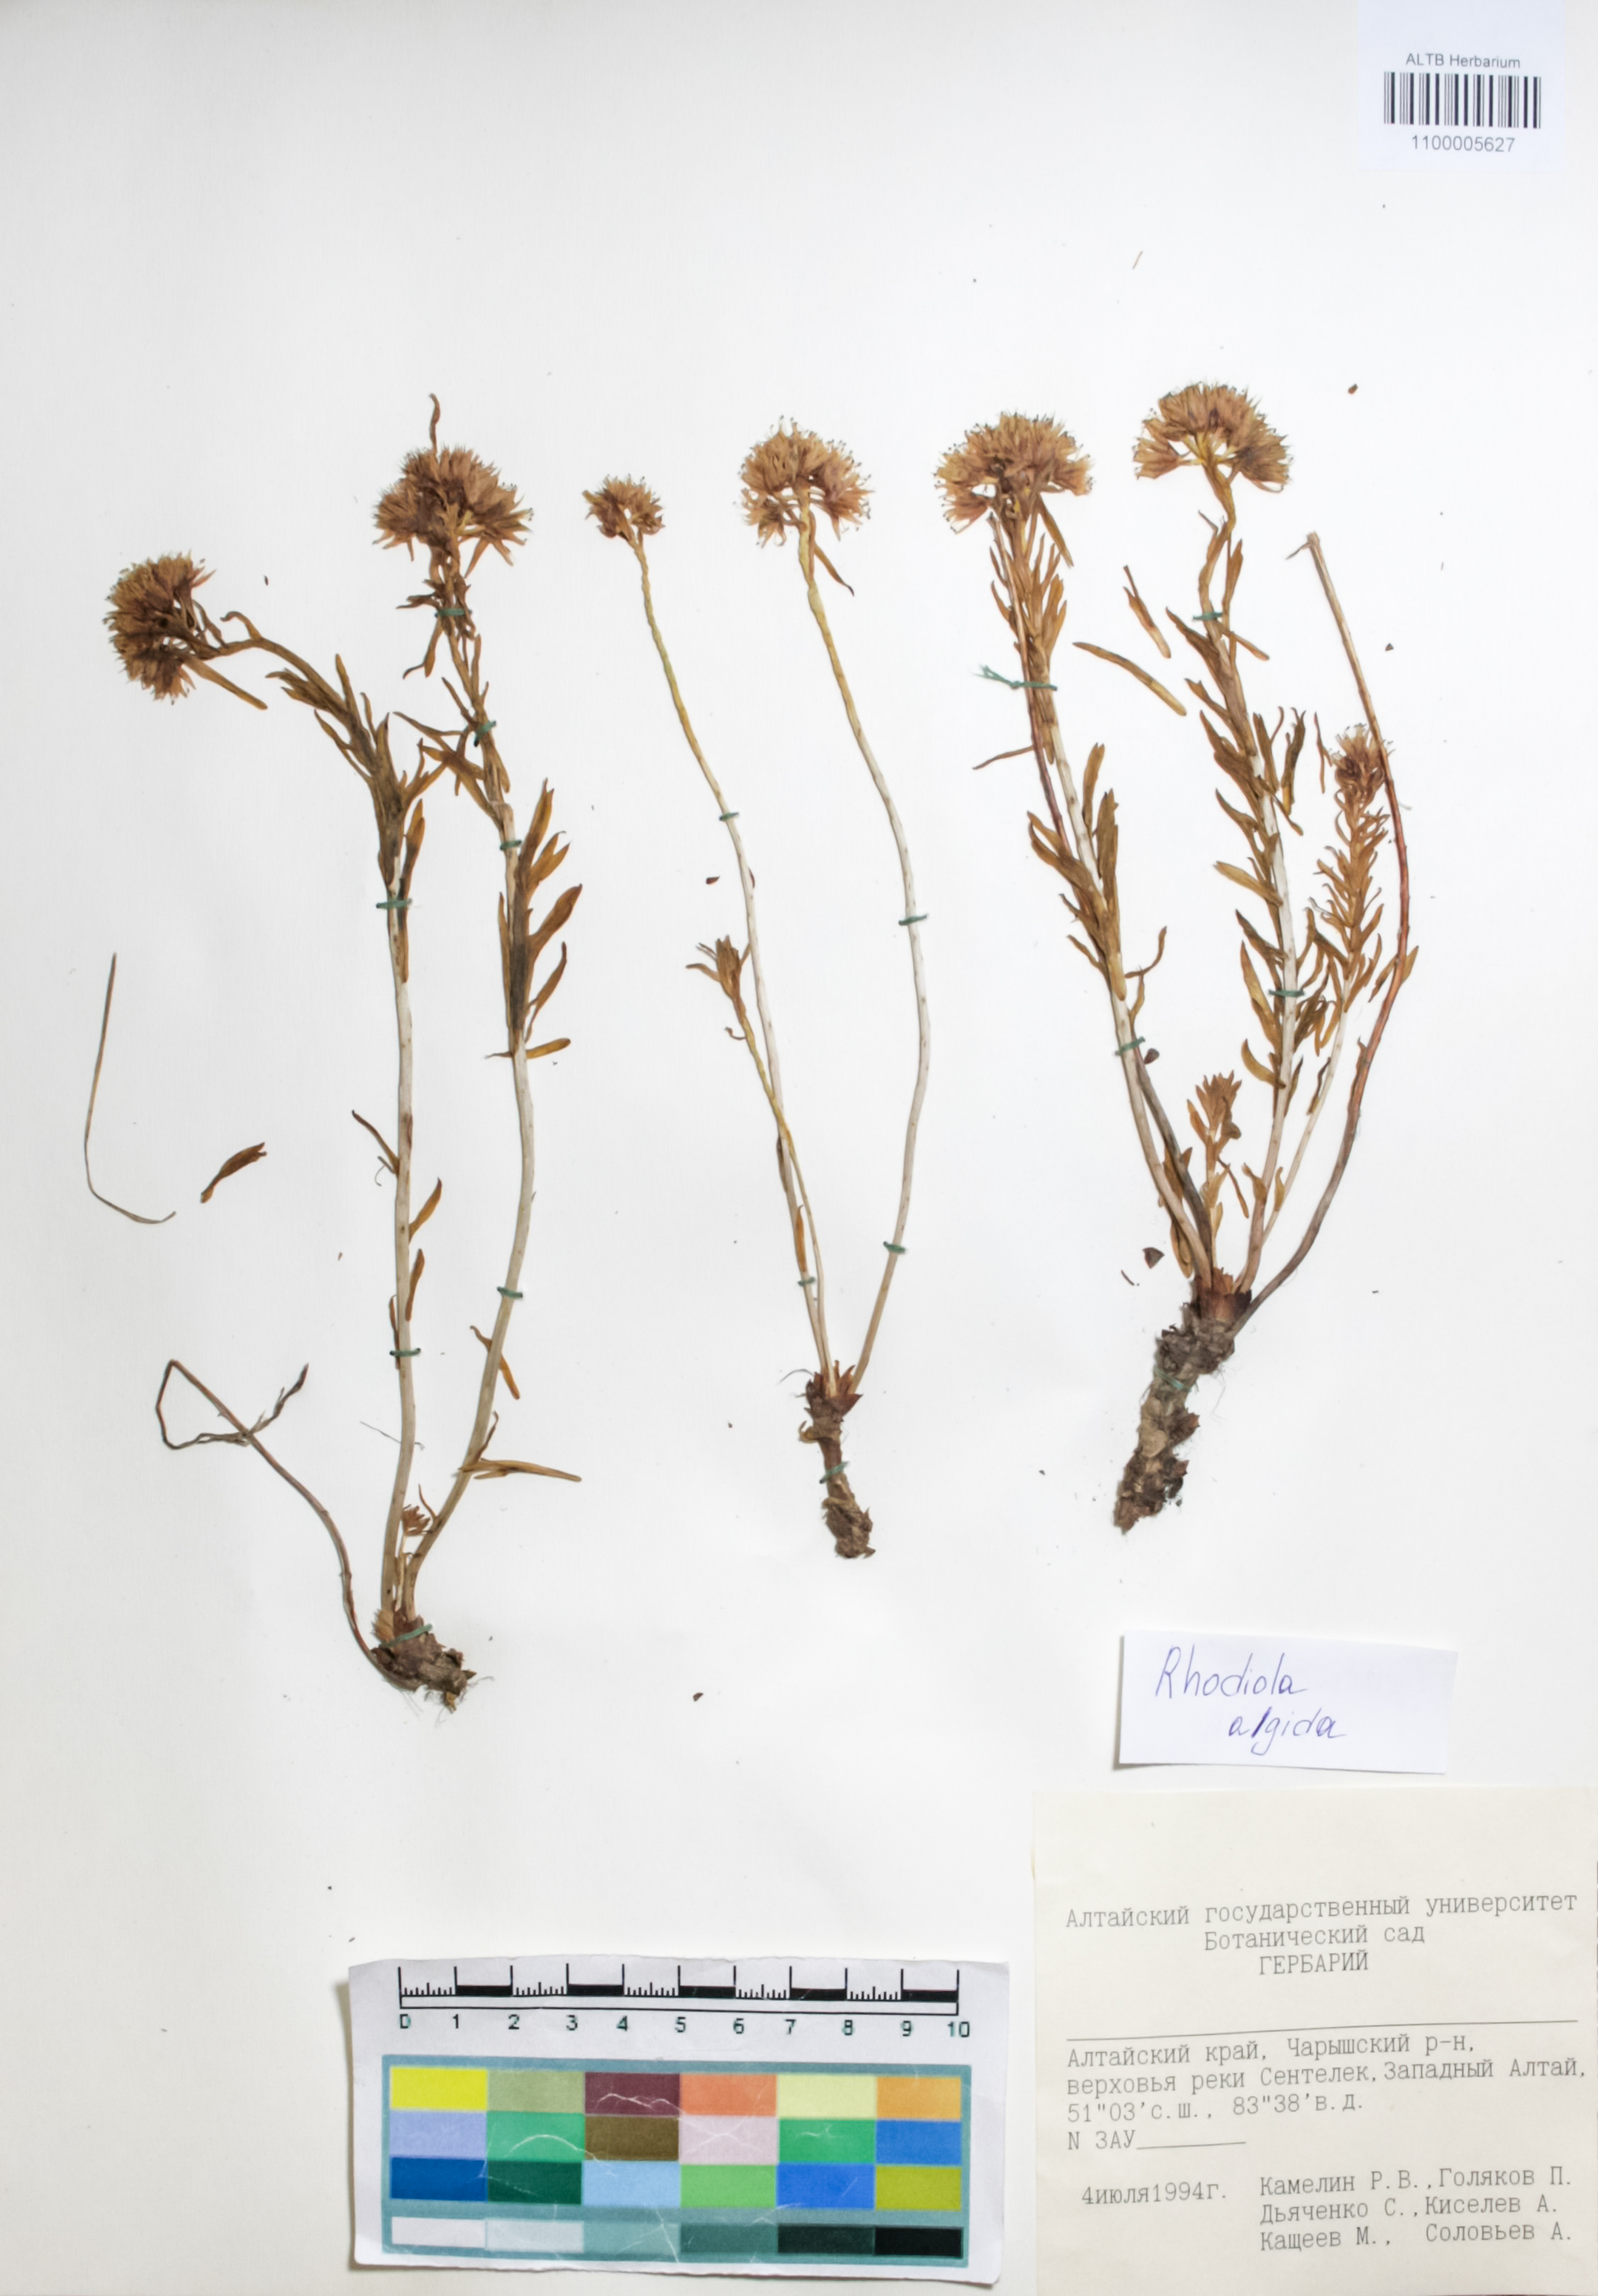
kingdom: Plantae
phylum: Tracheophyta
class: Magnoliopsida
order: Saxifragales
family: Crassulaceae
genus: Rhodiola
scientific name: Rhodiola algida
